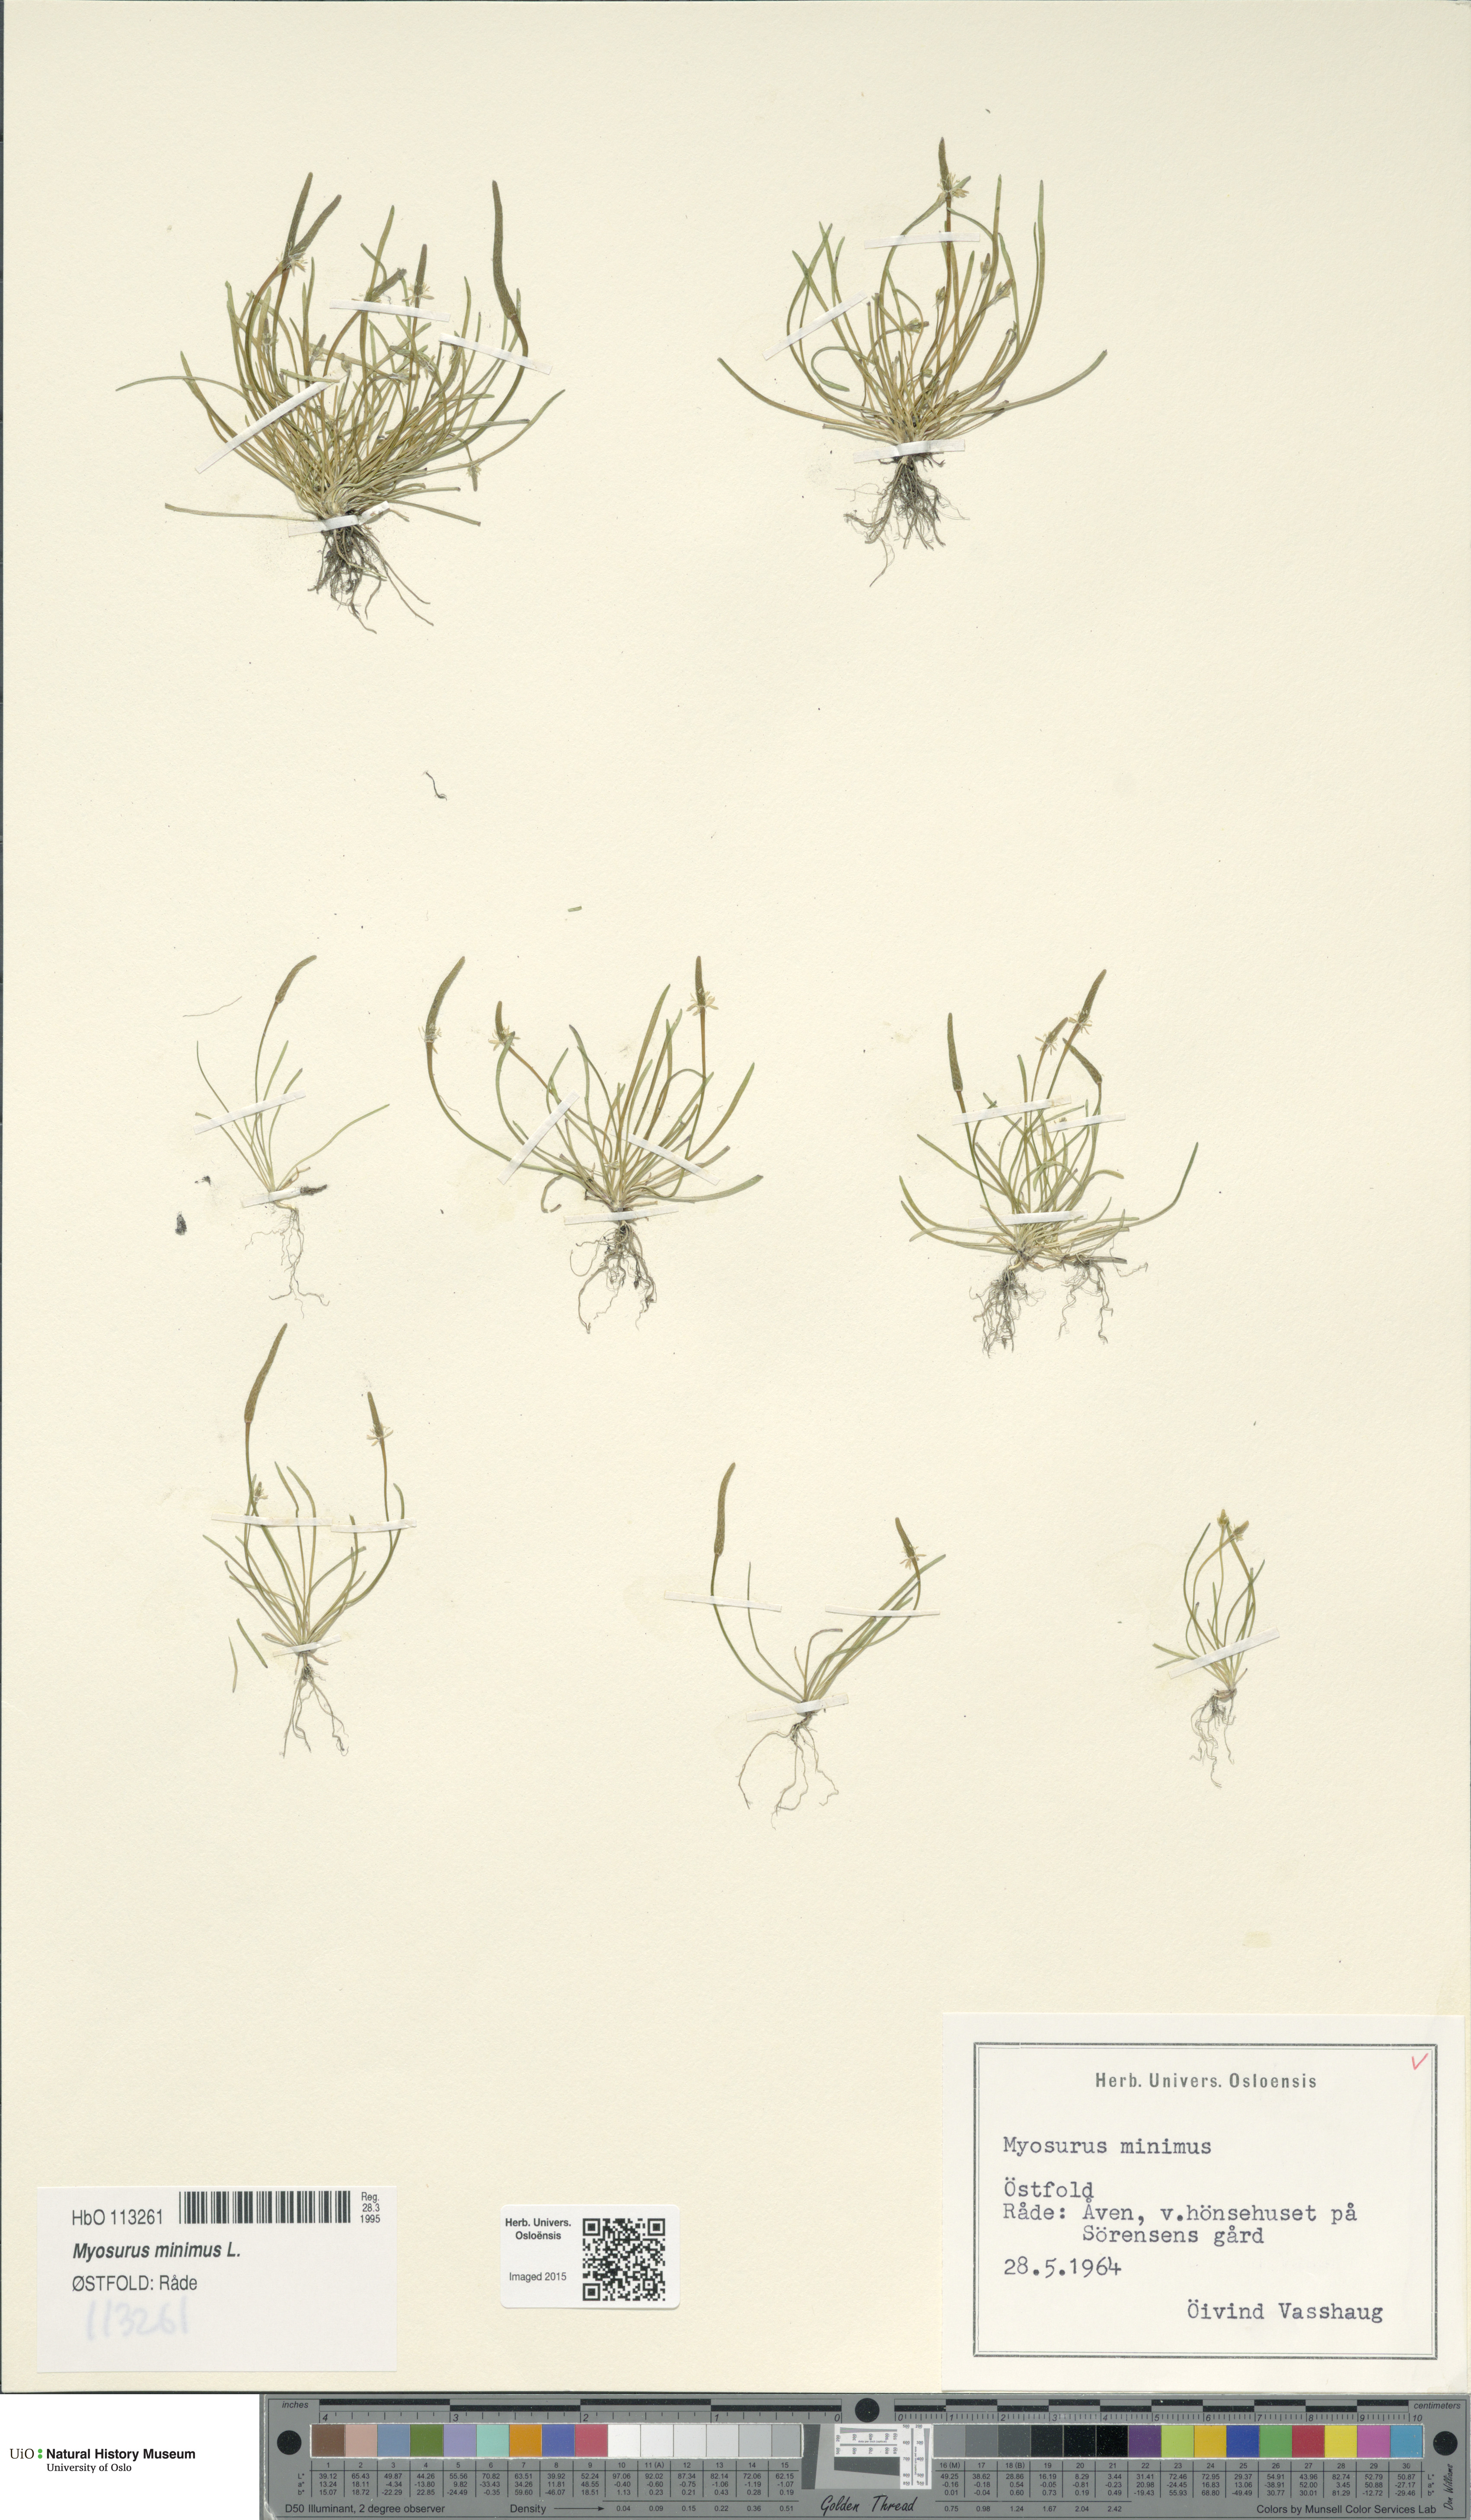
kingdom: Plantae
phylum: Tracheophyta
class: Magnoliopsida
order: Ranunculales
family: Ranunculaceae
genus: Myosurus
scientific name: Myosurus minimus
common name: Mousetail
